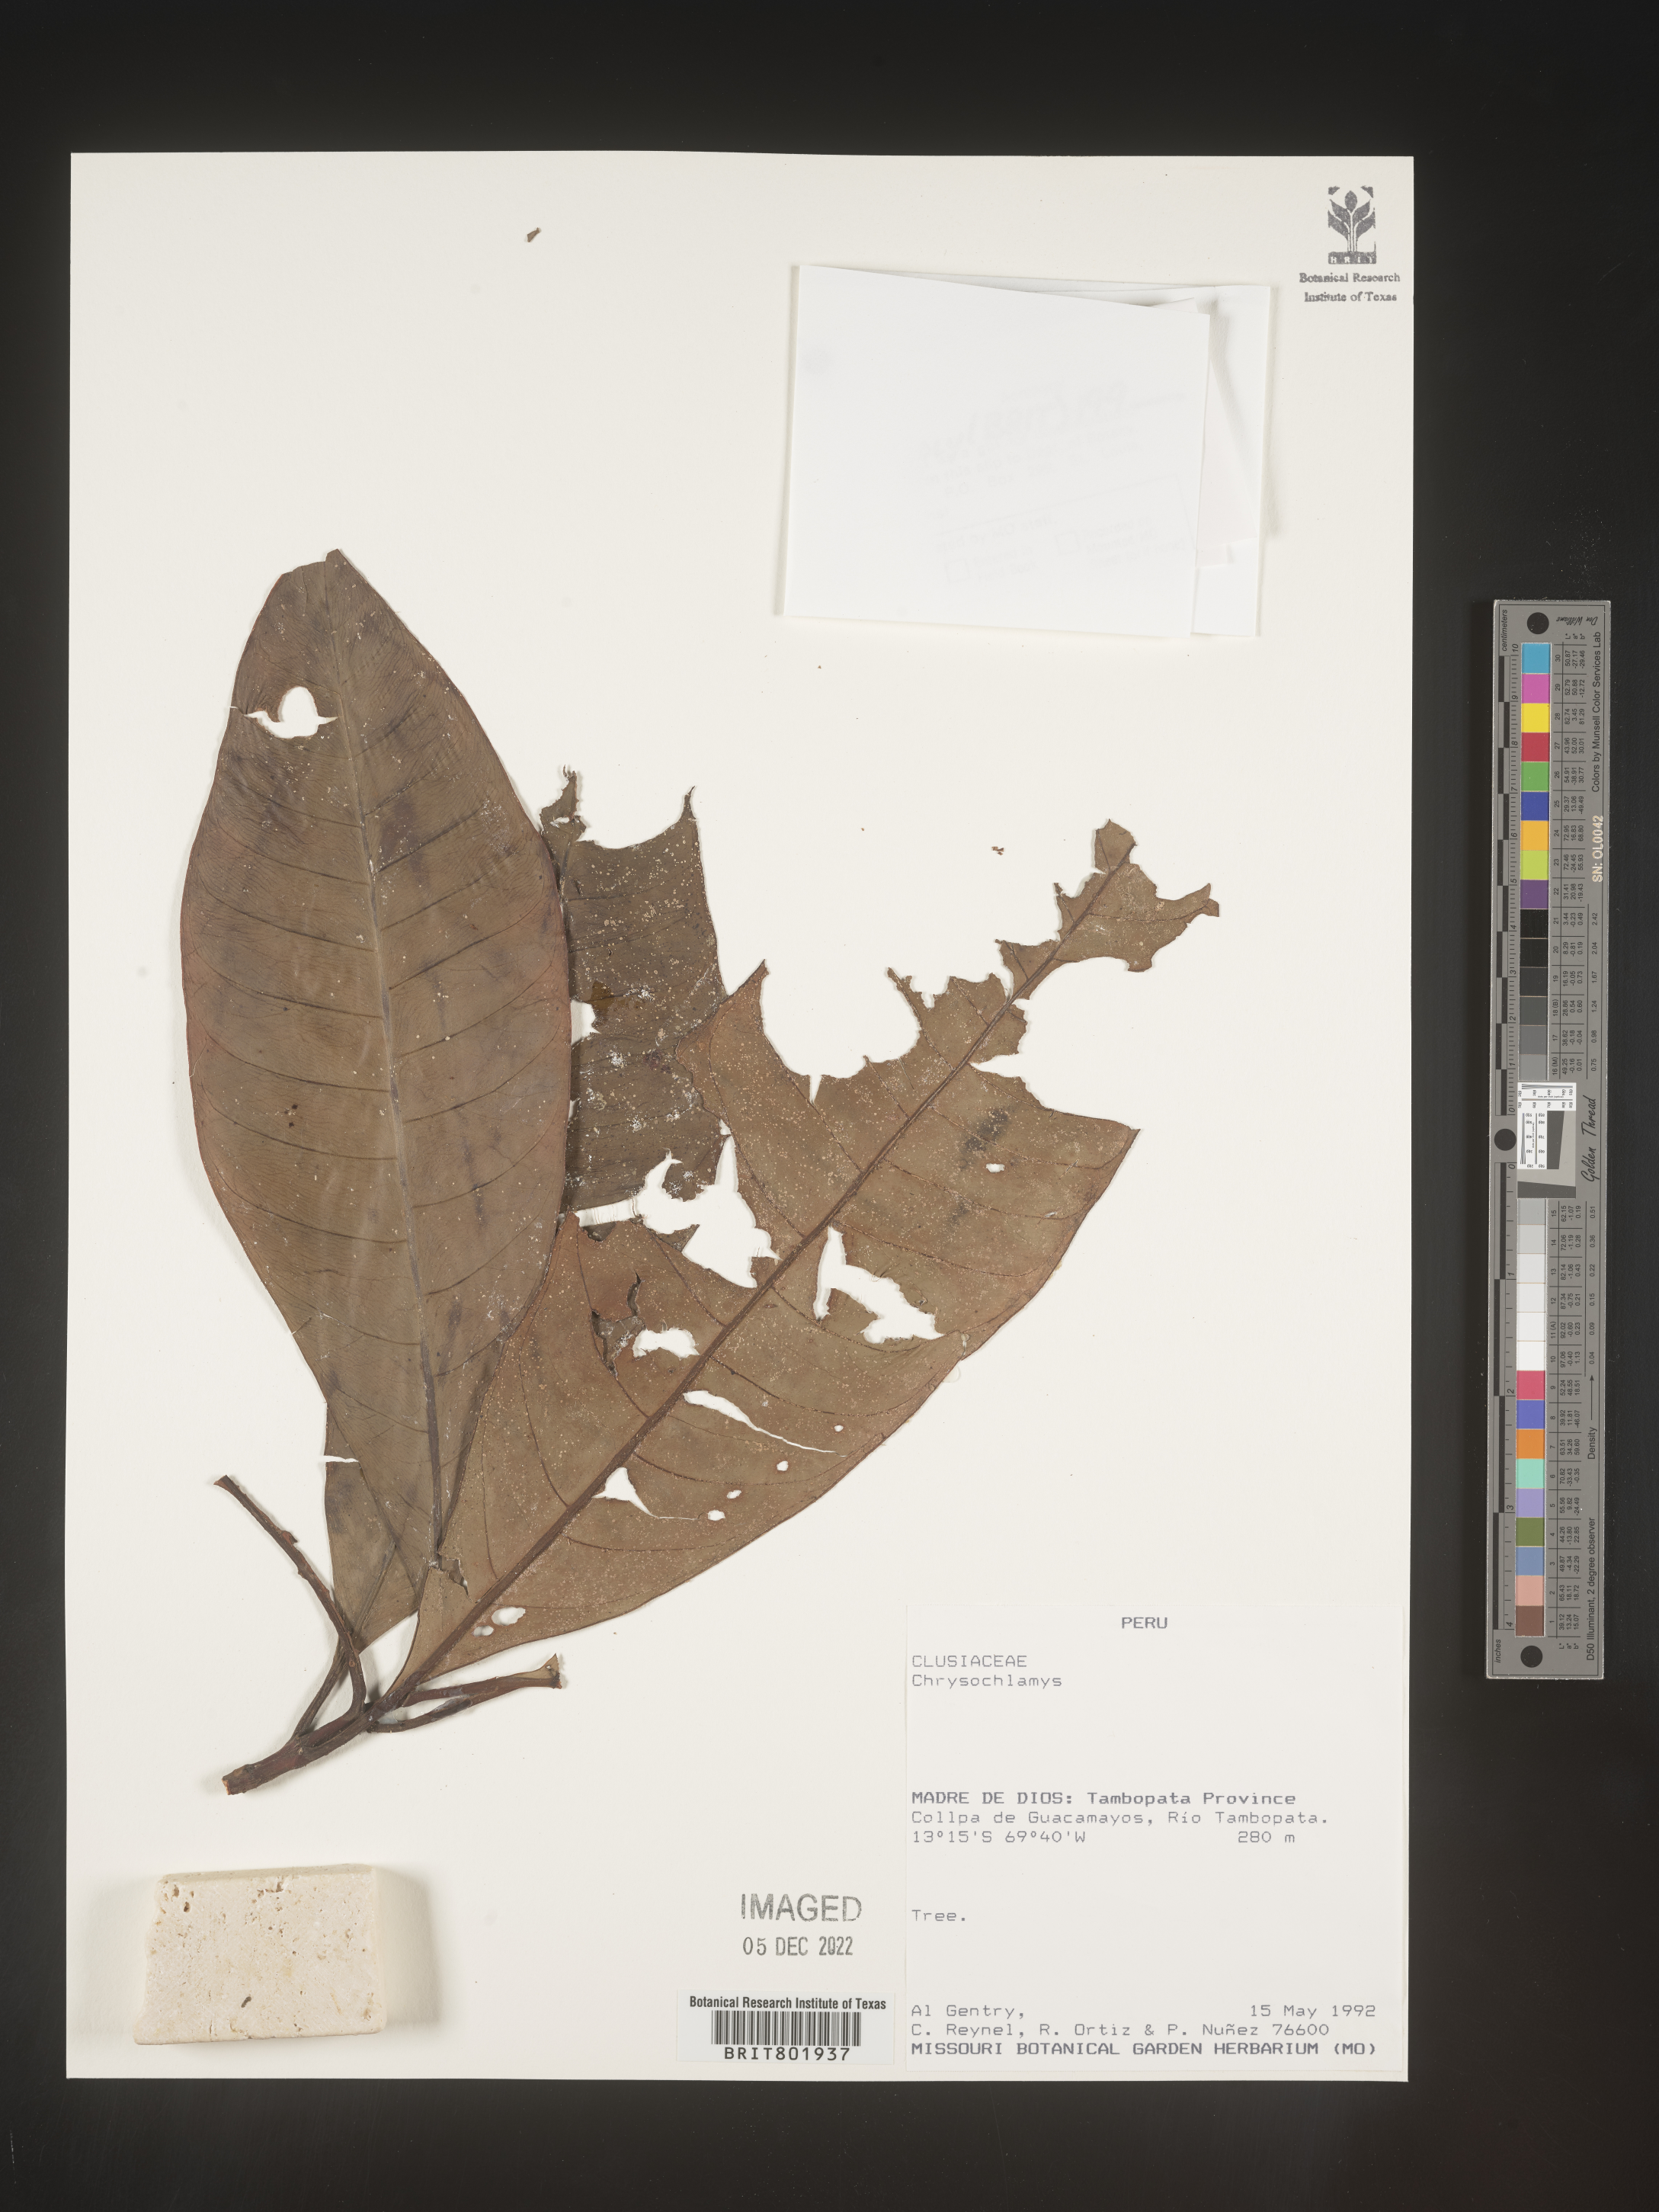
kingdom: Plantae
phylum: Tracheophyta
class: Magnoliopsida
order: Malpighiales
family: Clusiaceae
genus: Chrysochlamys
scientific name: Chrysochlamys
